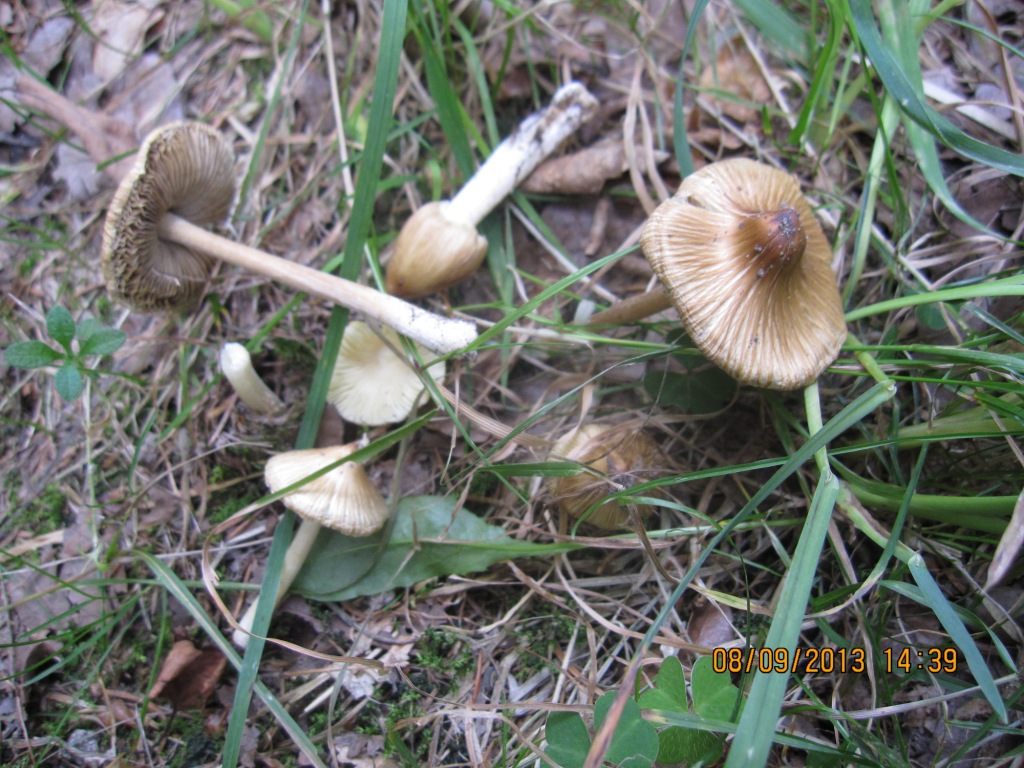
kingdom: Fungi
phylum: Basidiomycota
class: Agaricomycetes
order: Agaricales
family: Inocybaceae
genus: Pseudosperma
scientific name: Pseudosperma rimosum
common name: gulbladet trævlhat
